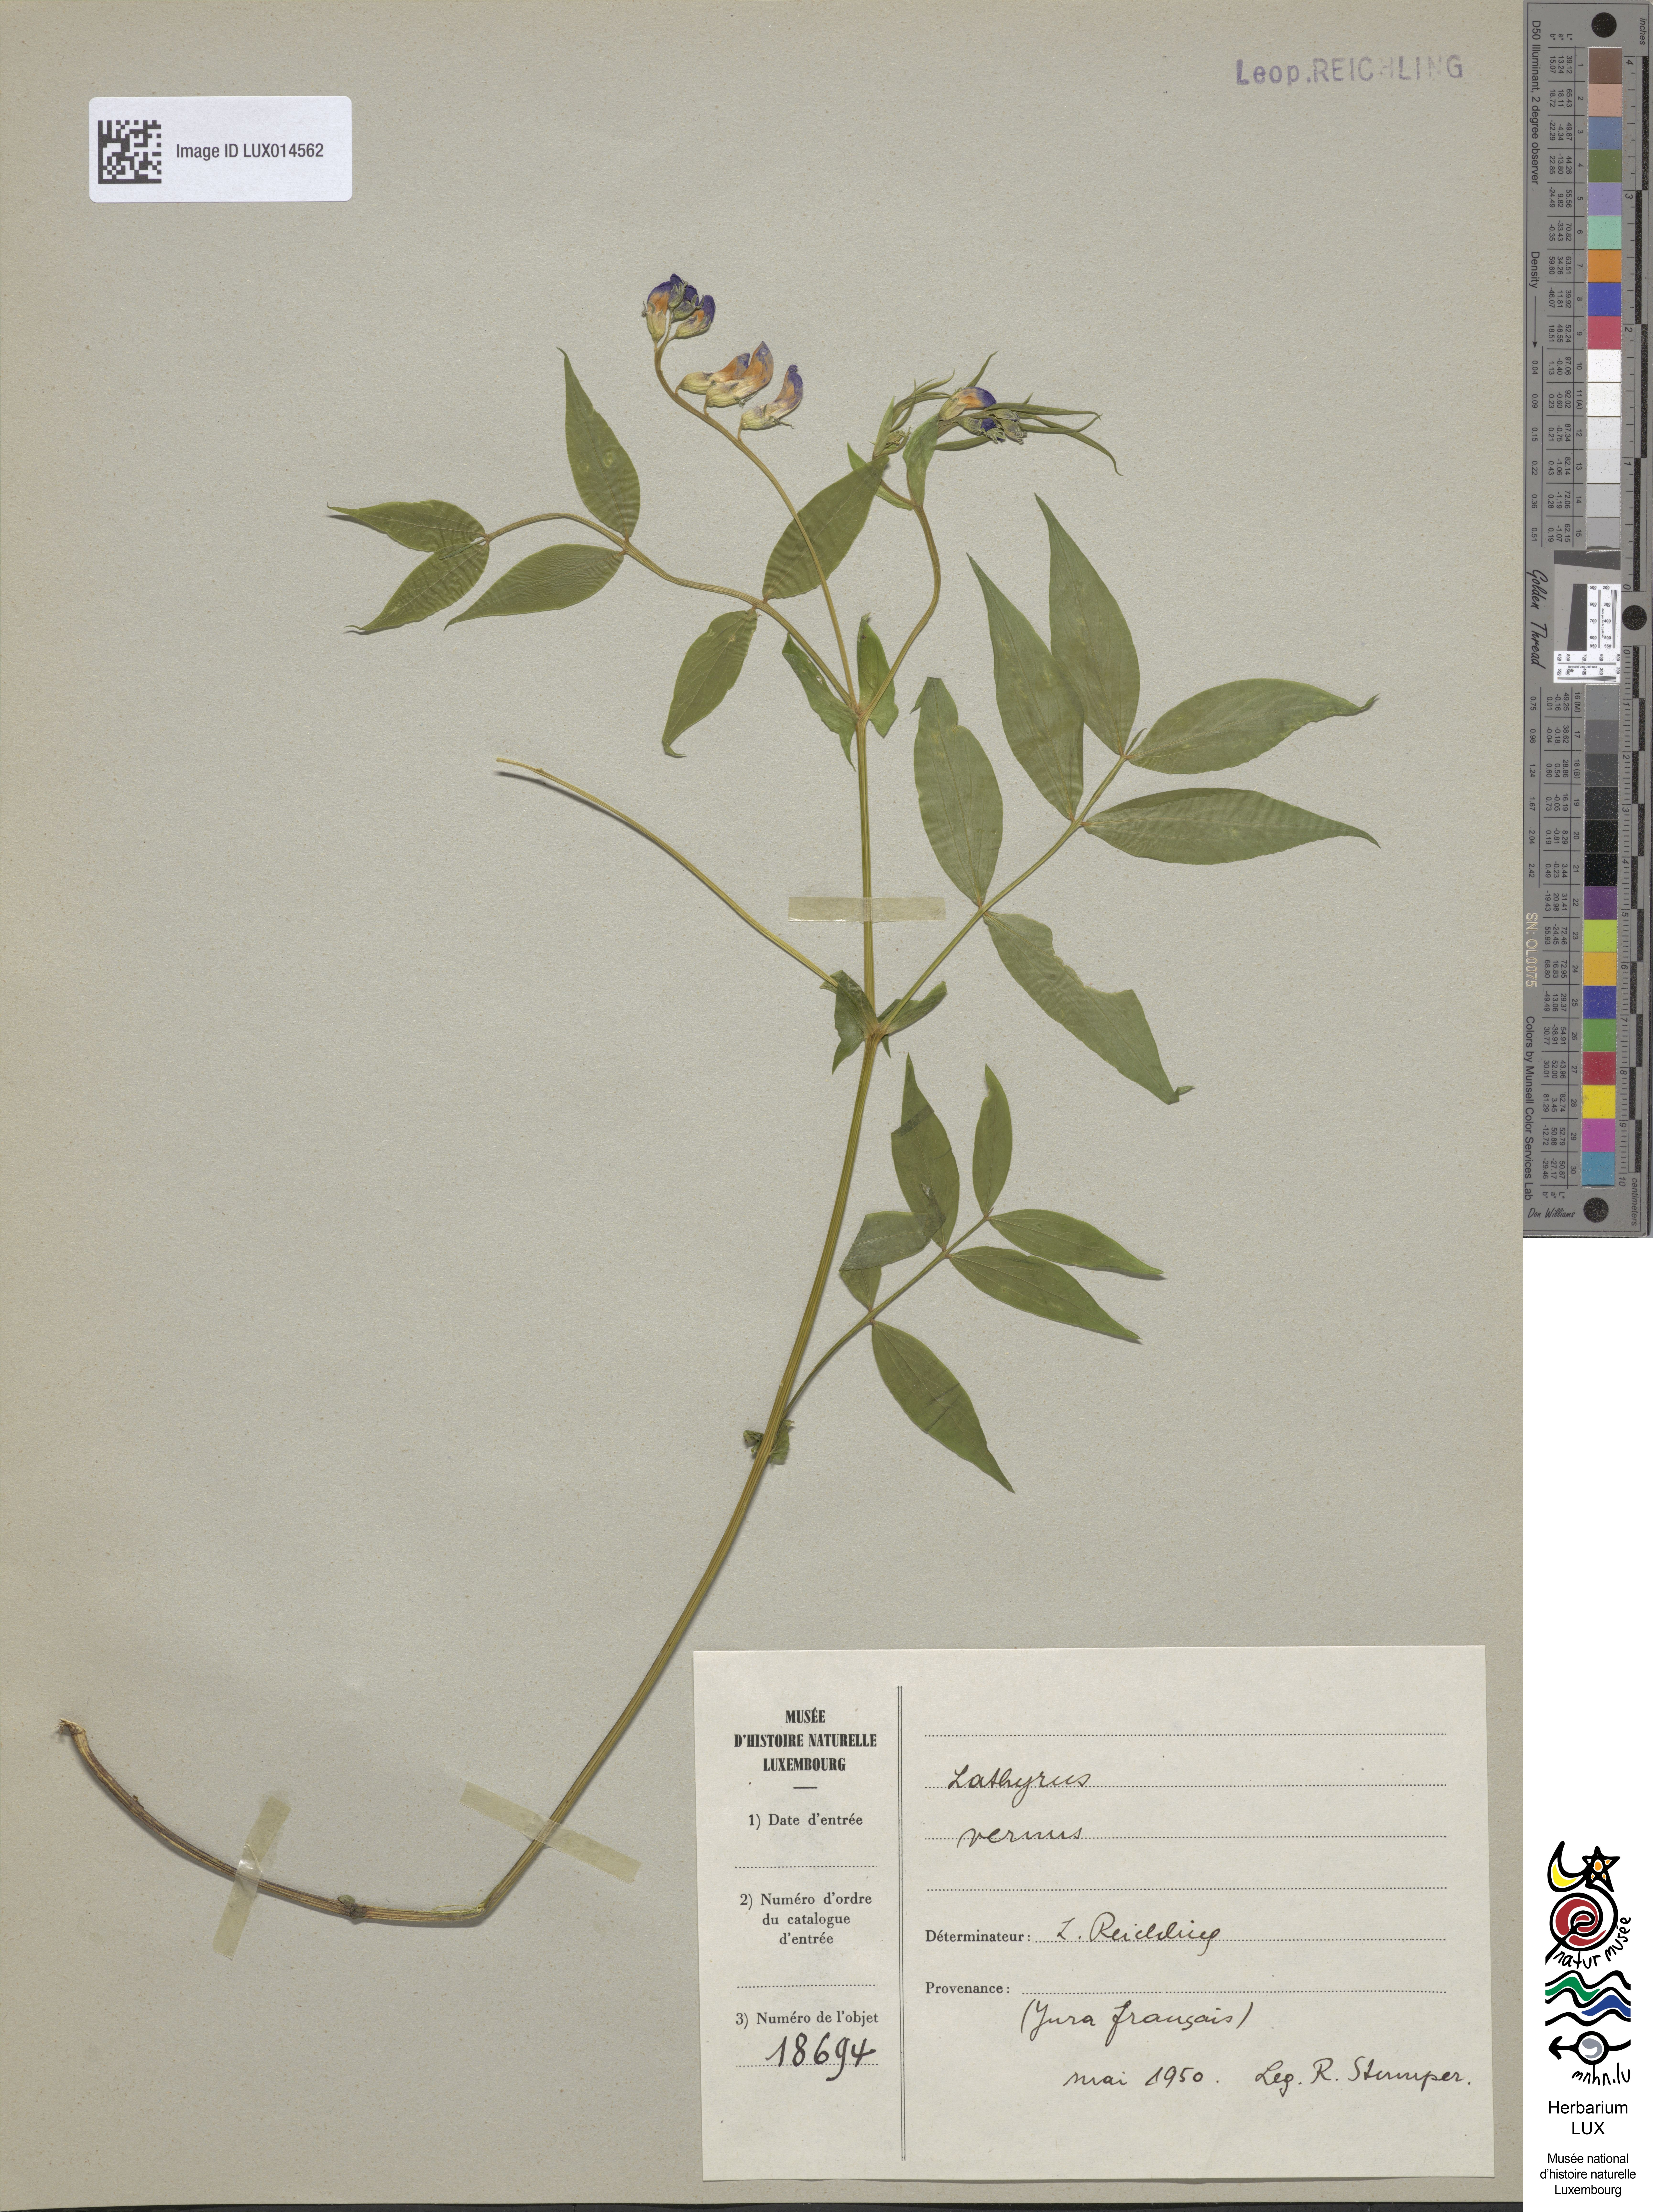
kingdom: Plantae
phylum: Tracheophyta
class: Magnoliopsida
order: Fabales
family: Fabaceae
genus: Lathyrus
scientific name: Lathyrus vernus
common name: Spring pea
